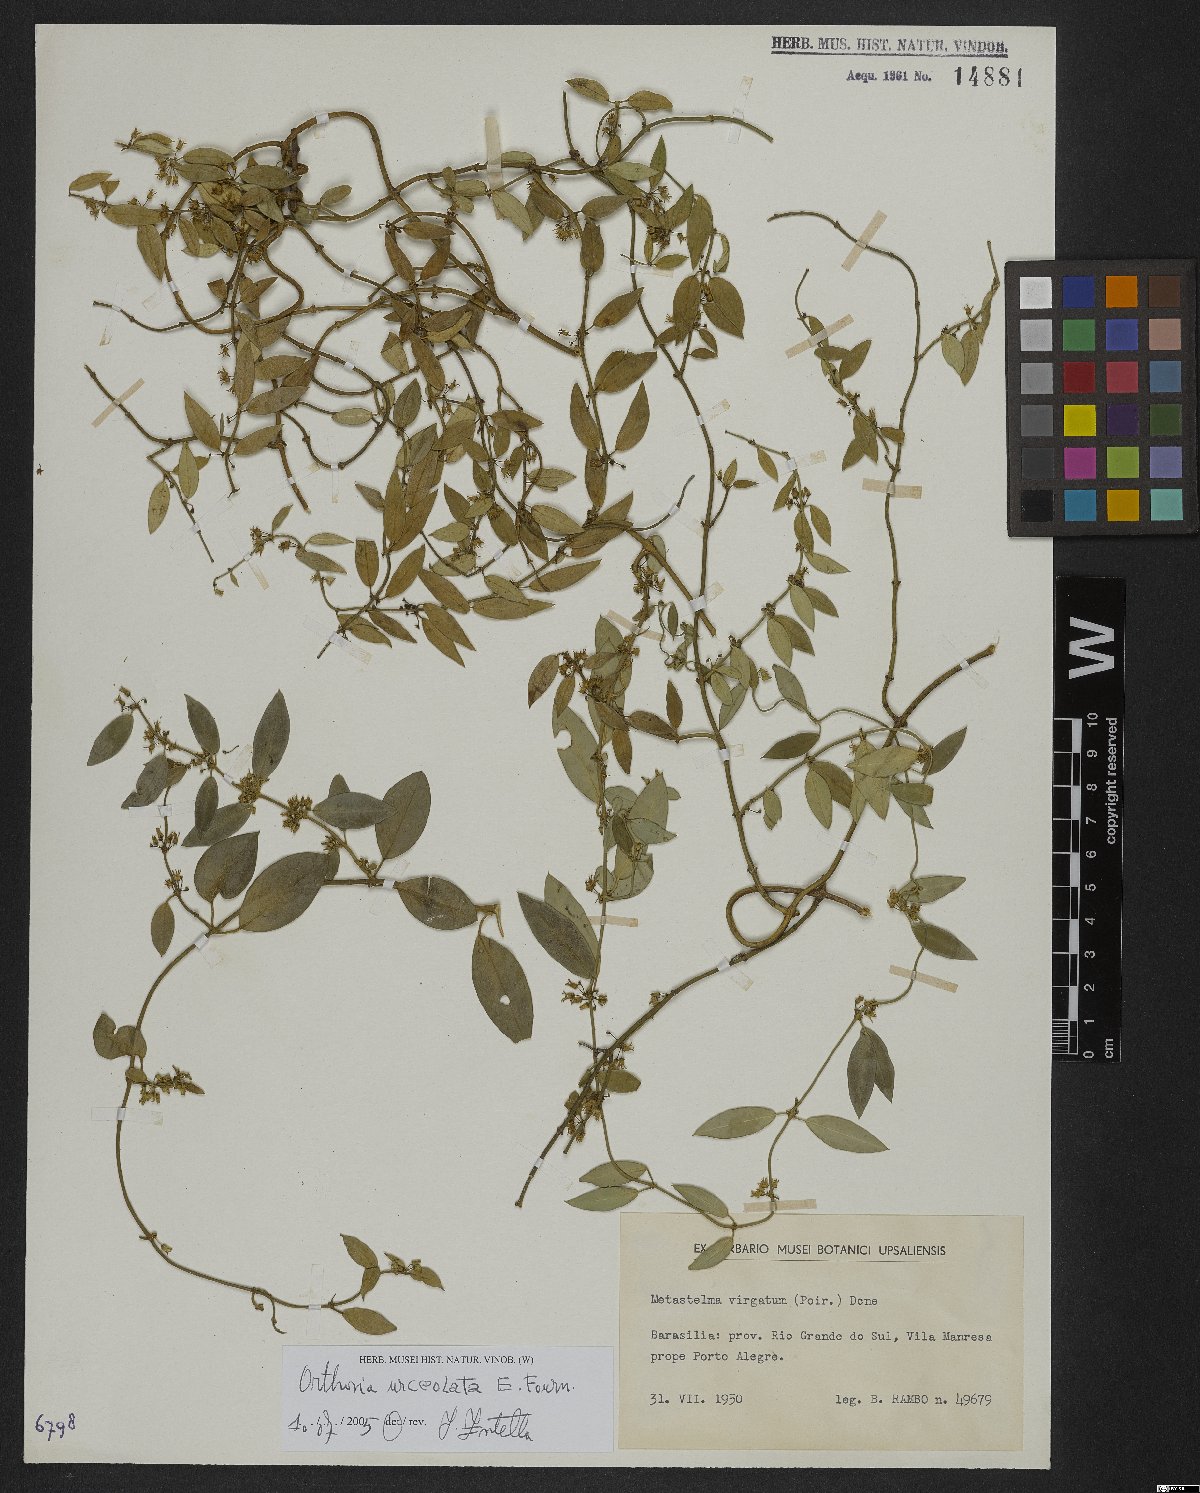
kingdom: Plantae
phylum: Tracheophyta
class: Magnoliopsida
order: Gentianales
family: Apocynaceae
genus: Orthosia
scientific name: Orthosia urceolata
